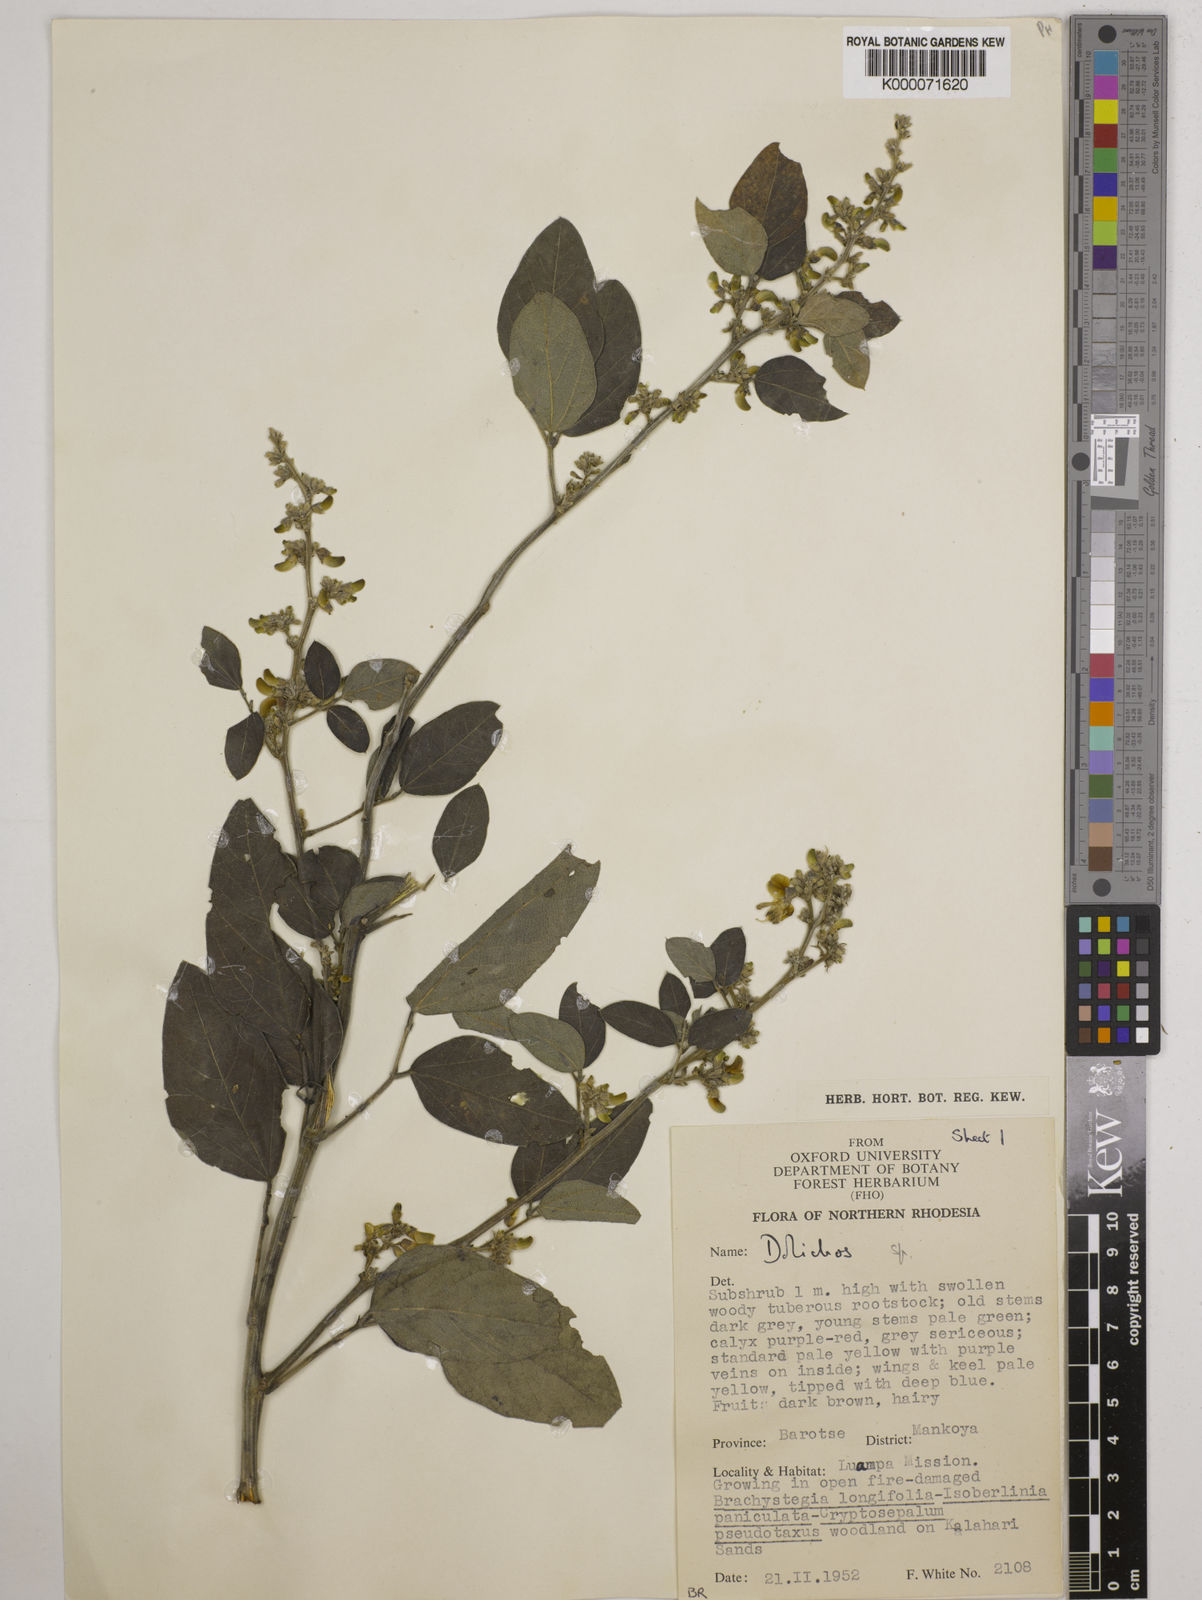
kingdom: Plantae
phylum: Tracheophyta
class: Magnoliopsida
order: Fabales
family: Fabaceae
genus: Dolichos
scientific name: Dolichos brevidentatus
